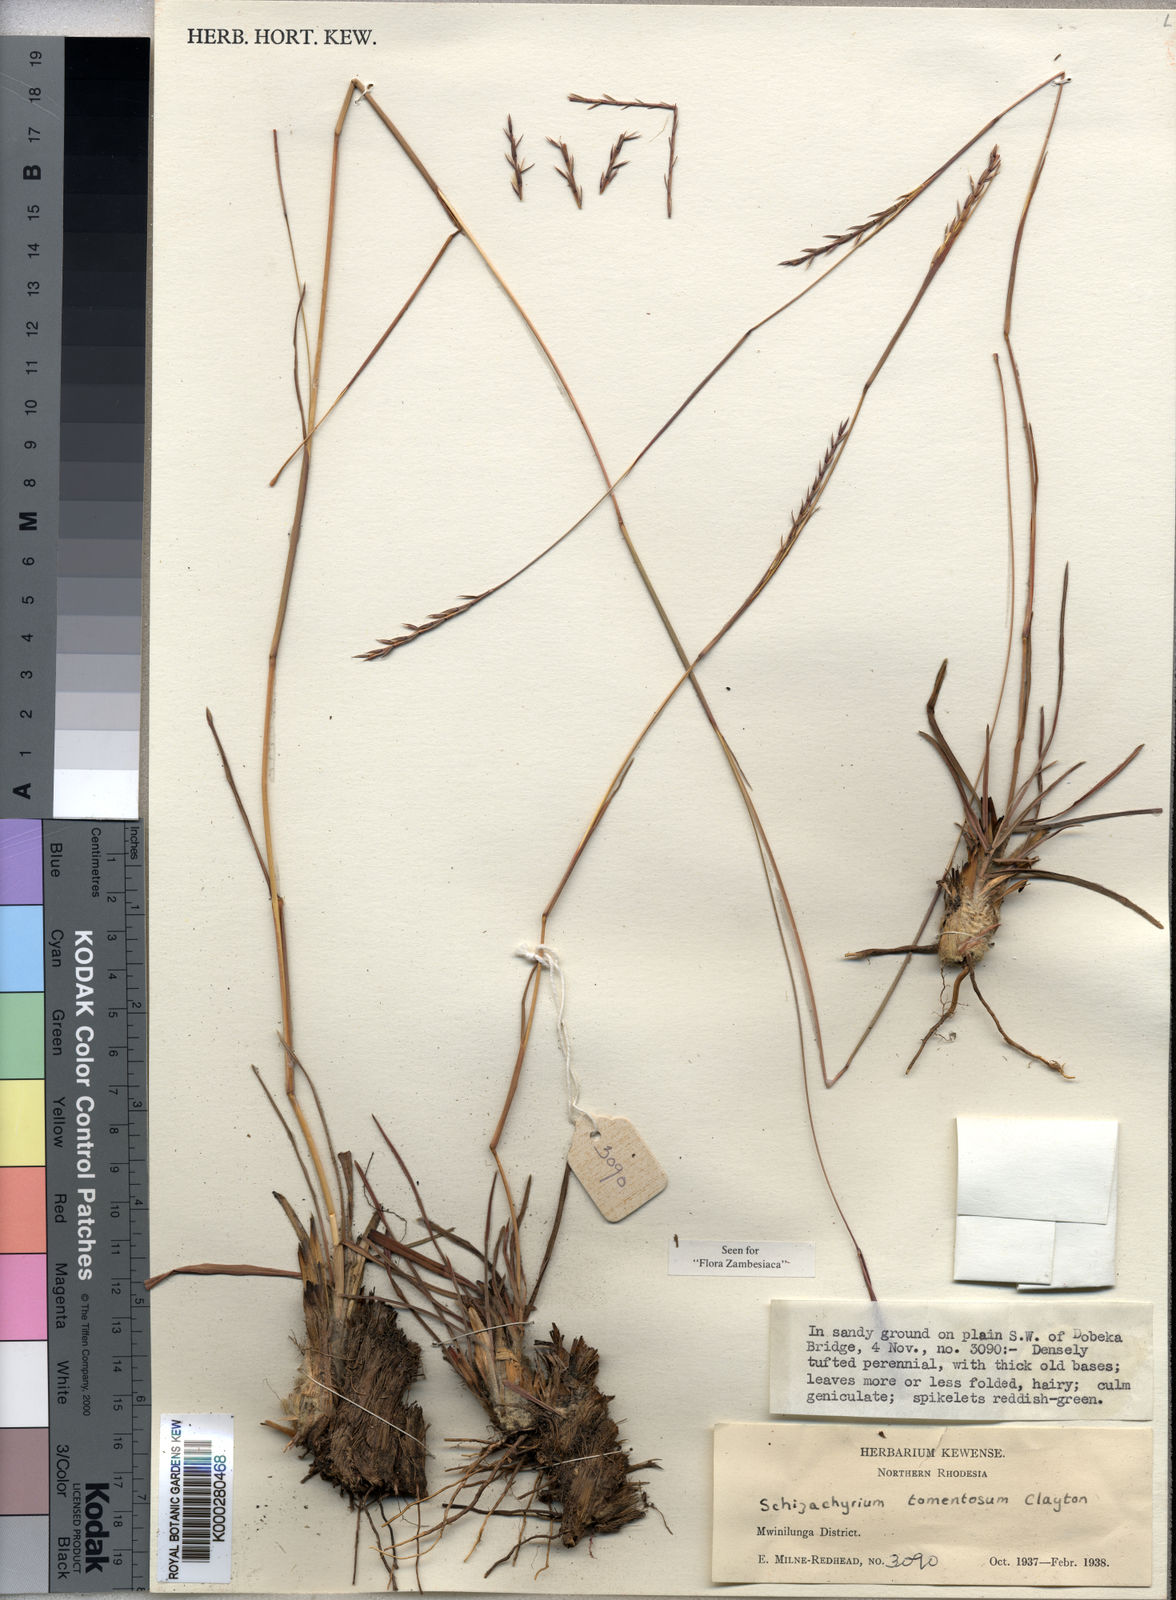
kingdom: Plantae
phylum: Tracheophyta
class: Liliopsida
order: Poales
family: Poaceae
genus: Schizachyrium
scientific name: Schizachyrium claudopus
